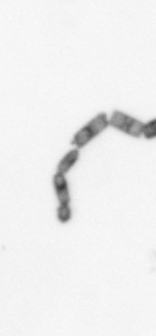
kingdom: Chromista
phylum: Ochrophyta
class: Bacillariophyceae
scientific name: Bacillariophyceae
